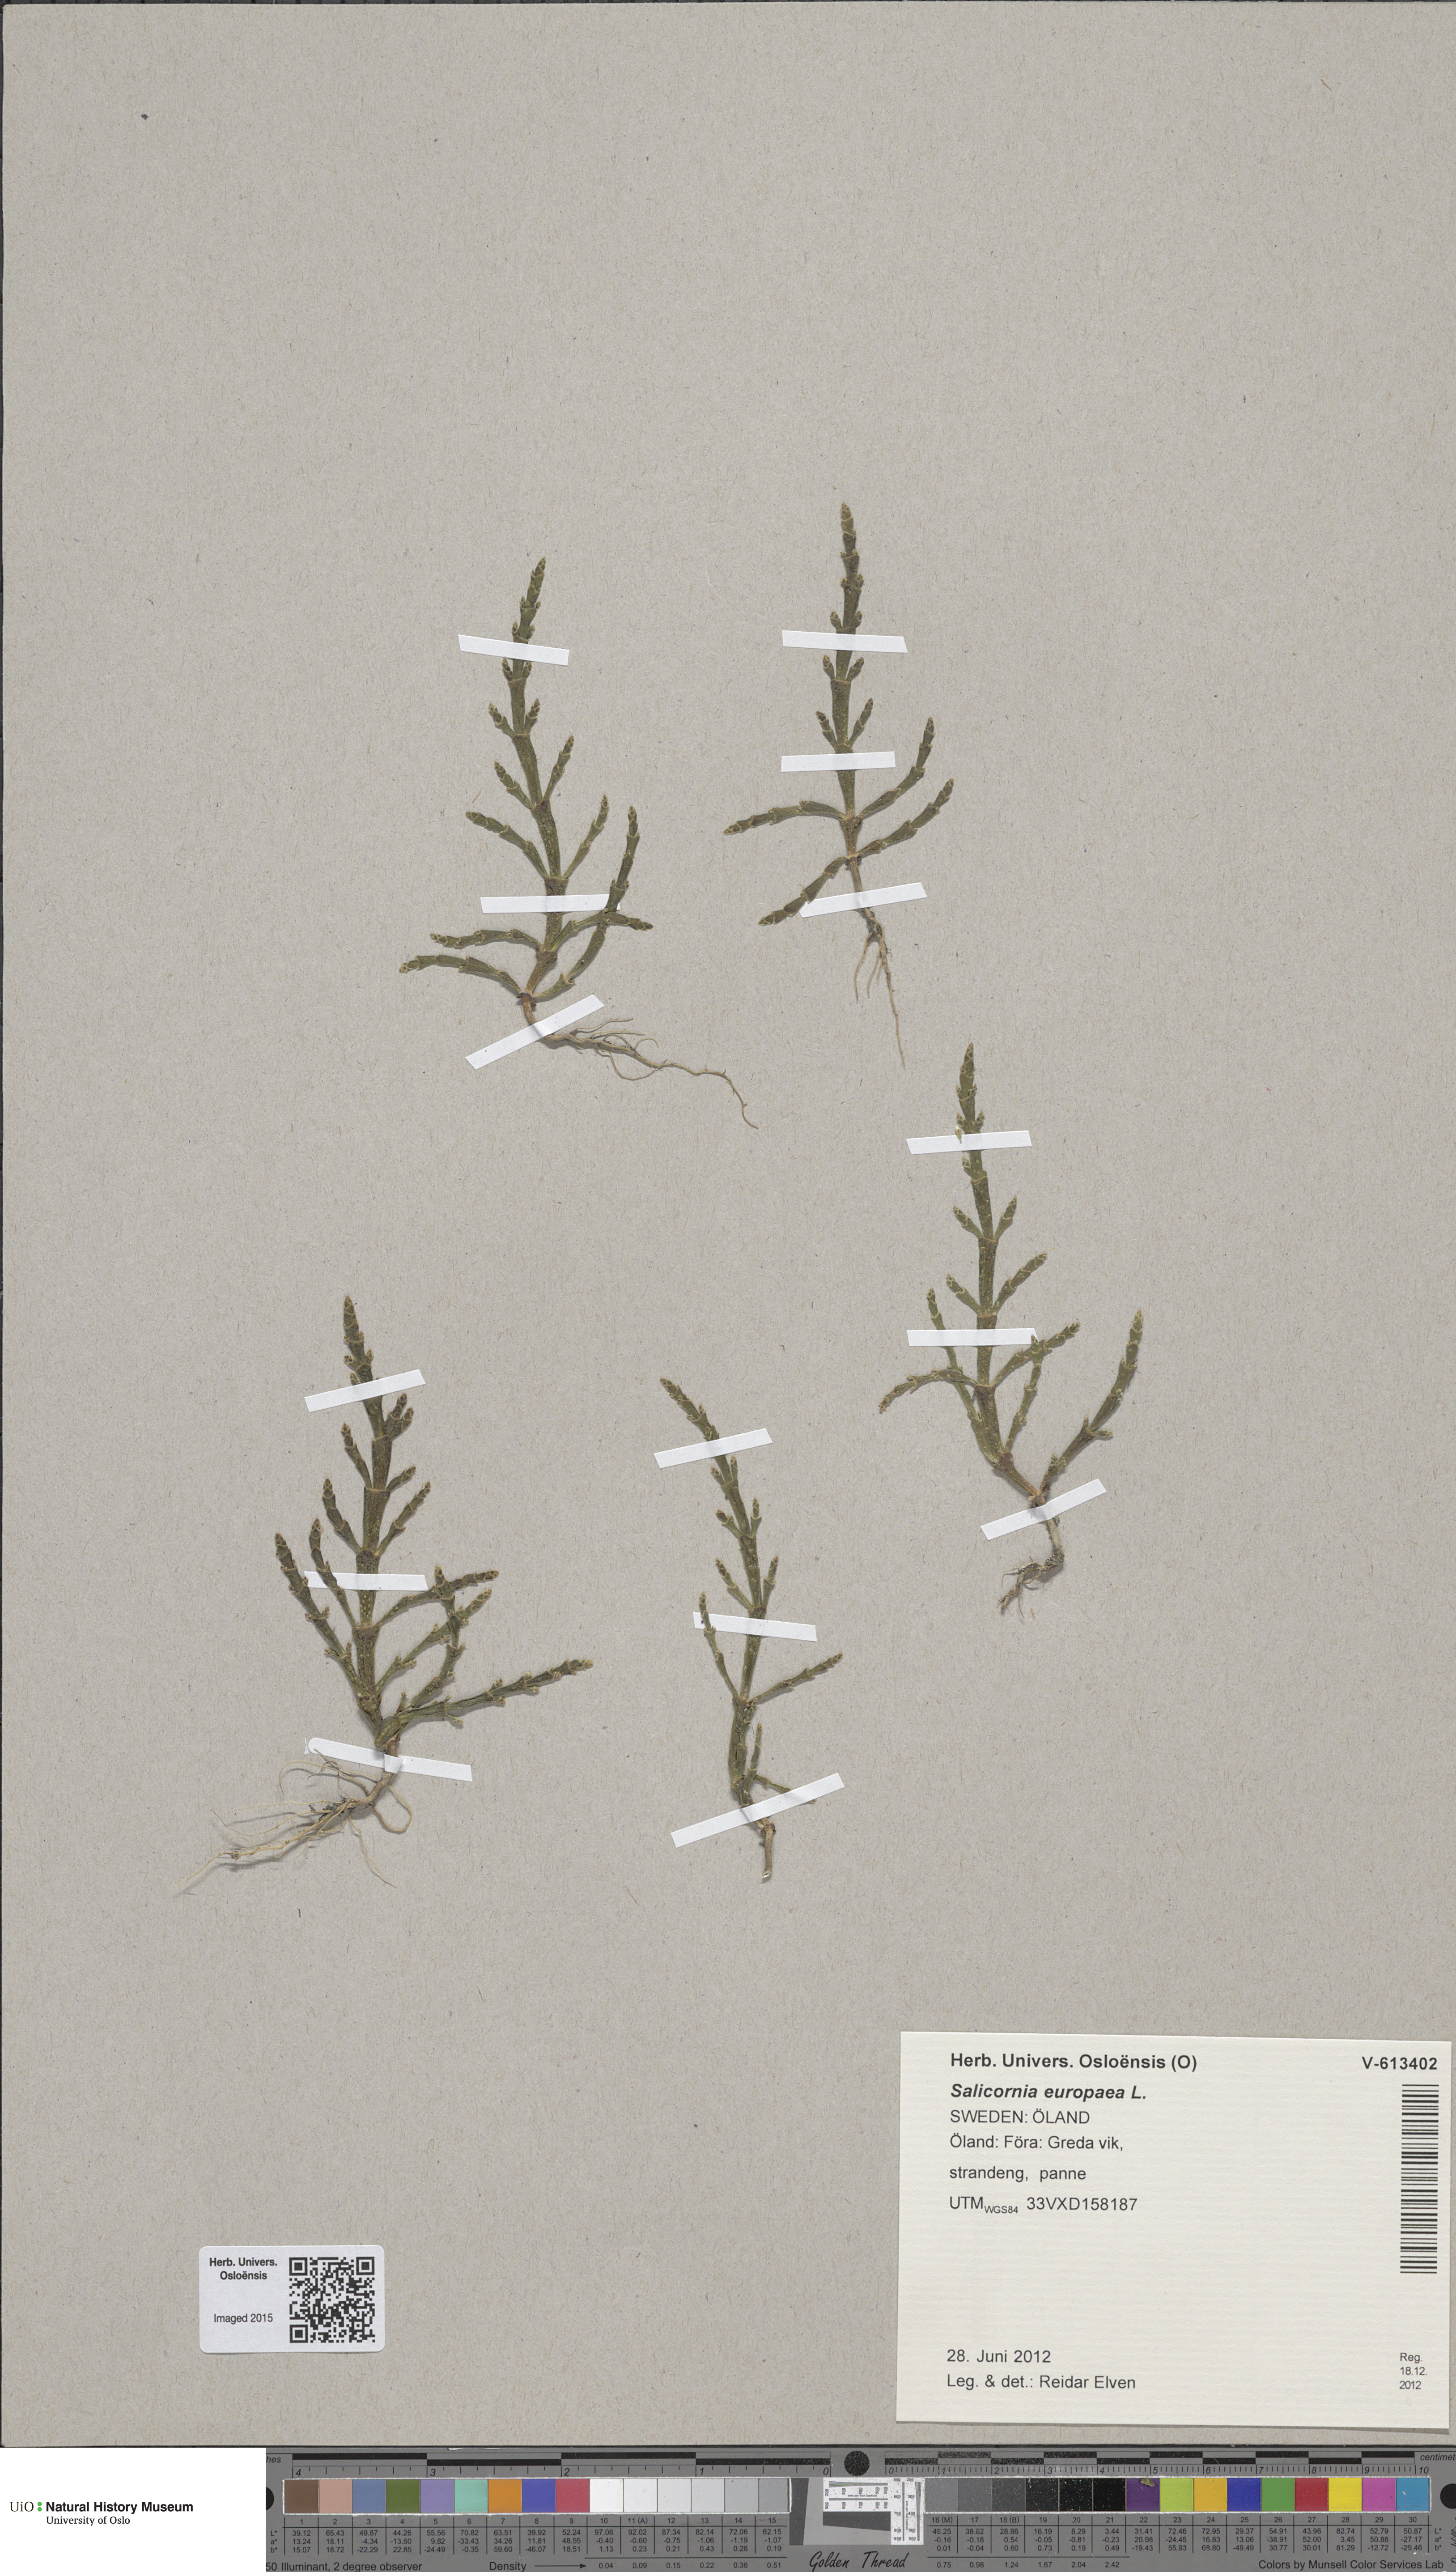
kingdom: Plantae
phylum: Tracheophyta
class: Magnoliopsida
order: Caryophyllales
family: Amaranthaceae
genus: Salicornia
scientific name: Salicornia europaea
